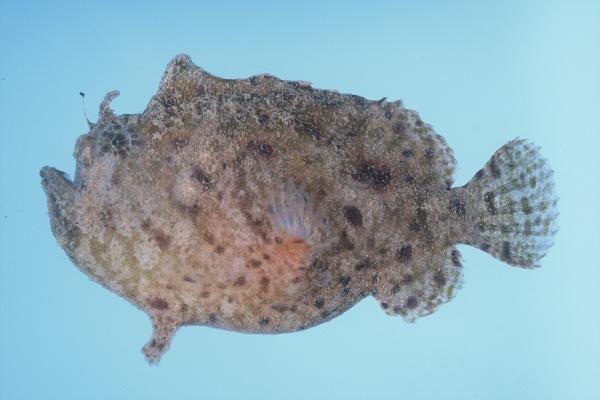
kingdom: Animalia
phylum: Chordata
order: Lophiiformes
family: Antennariidae
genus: Antennatus
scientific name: Antennatus nummifer
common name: Spotfin frogfish
